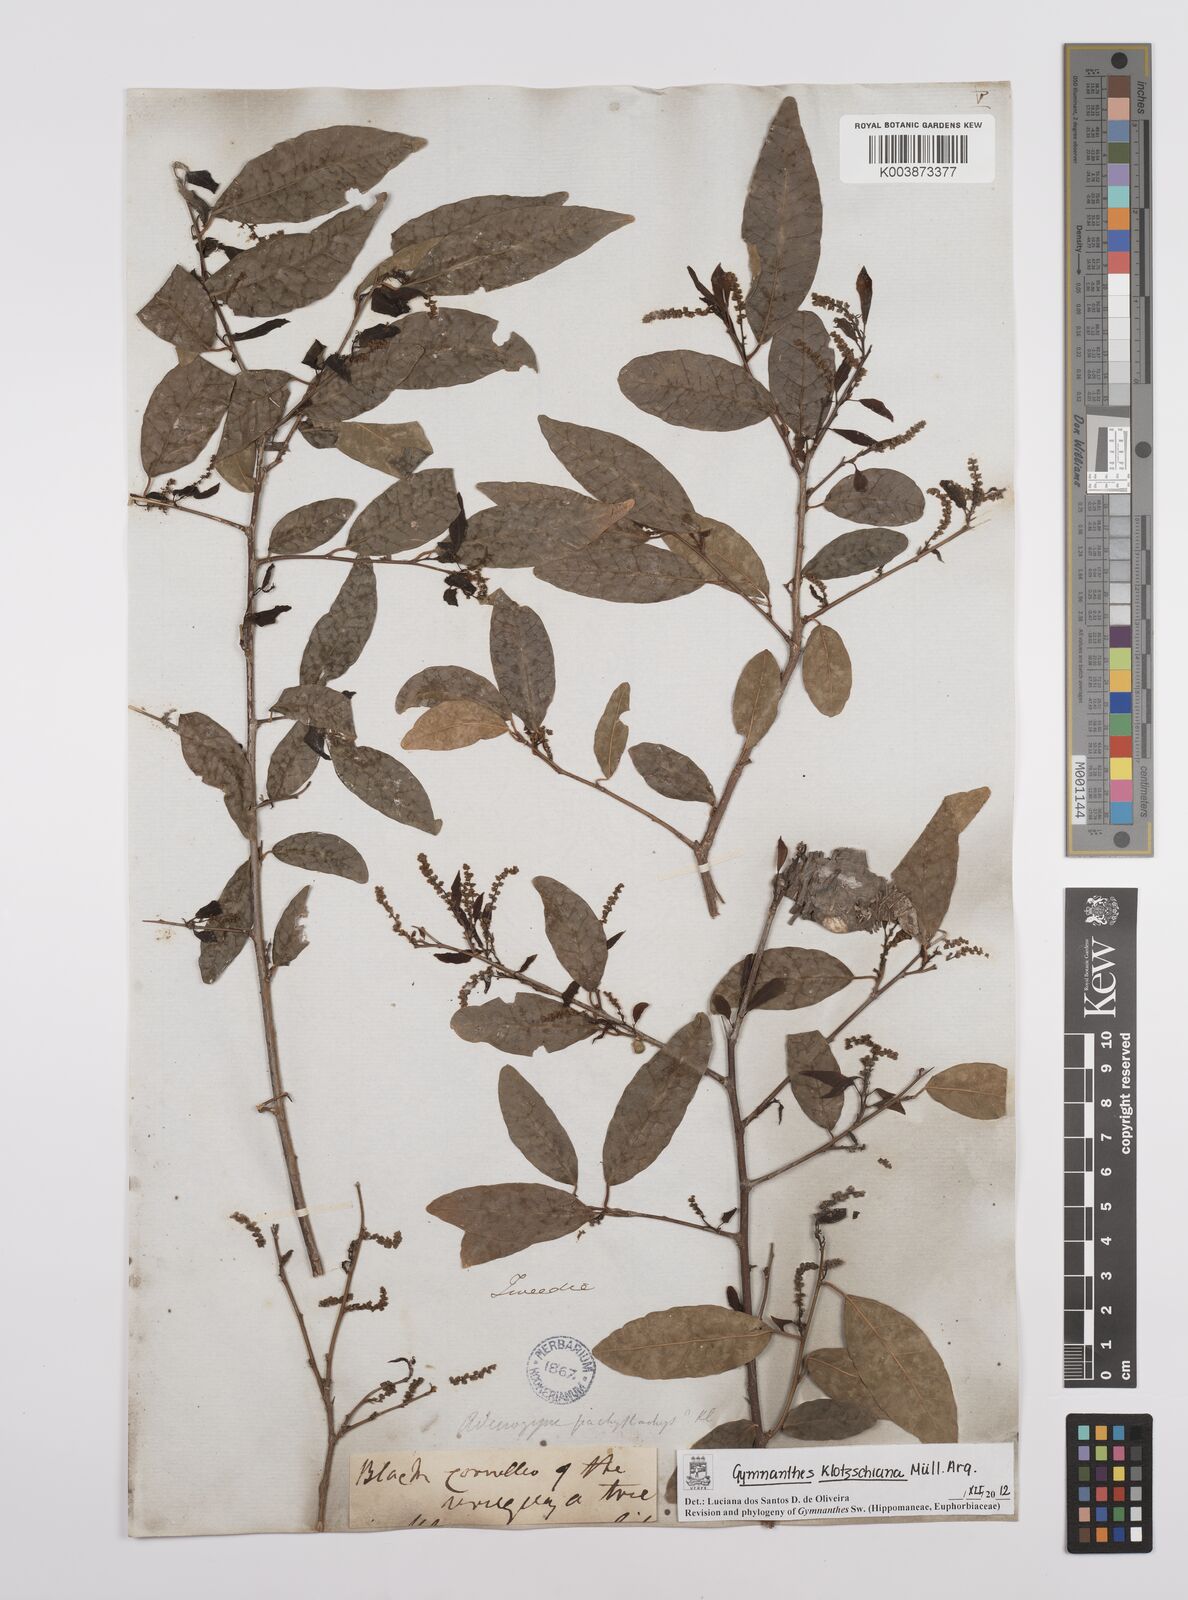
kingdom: Plantae
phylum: Tracheophyta
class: Magnoliopsida
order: Malpighiales
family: Euphorbiaceae
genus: Sebastiania
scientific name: Sebastiania klotzschiana
